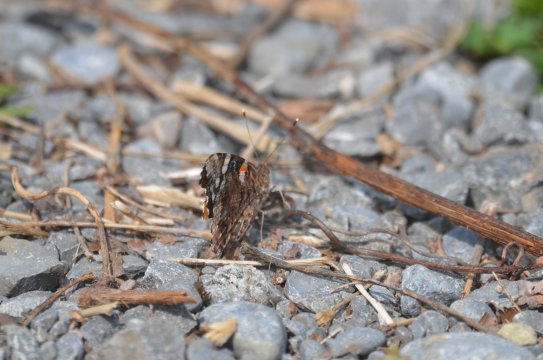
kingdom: Animalia
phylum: Arthropoda
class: Insecta
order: Lepidoptera
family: Nymphalidae
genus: Vanessa
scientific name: Vanessa atalanta
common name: Red Admiral
